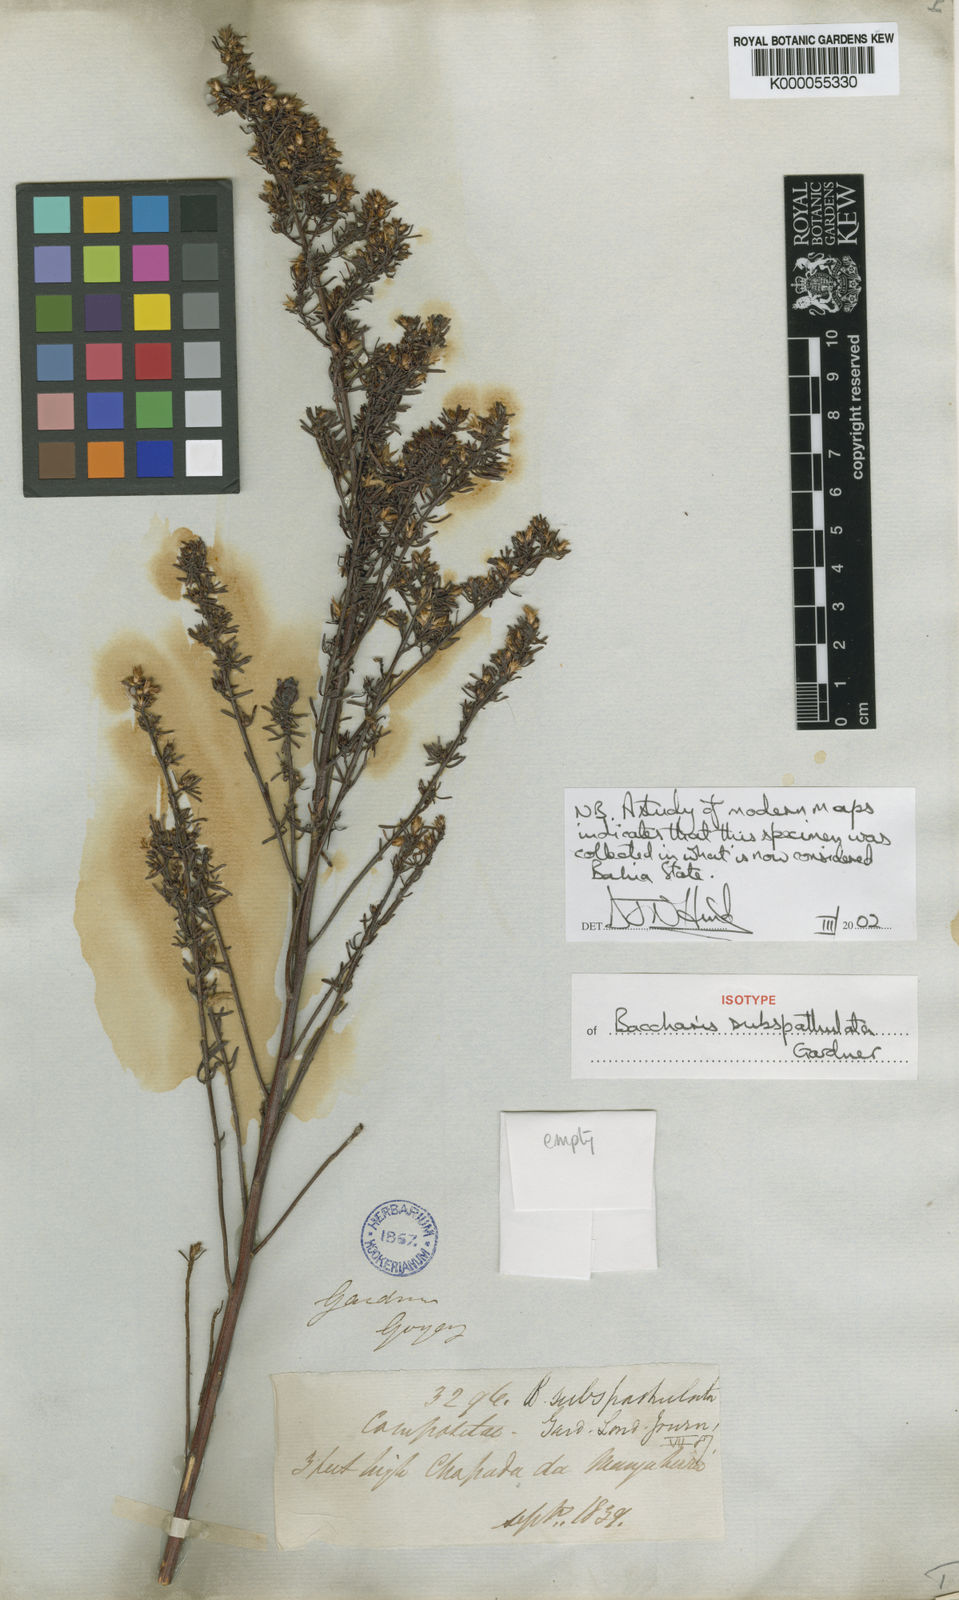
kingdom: Plantae
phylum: Tracheophyta
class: Magnoliopsida
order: Asterales
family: Asteraceae
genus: Baccharis
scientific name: Baccharis pseudotenuifolia
